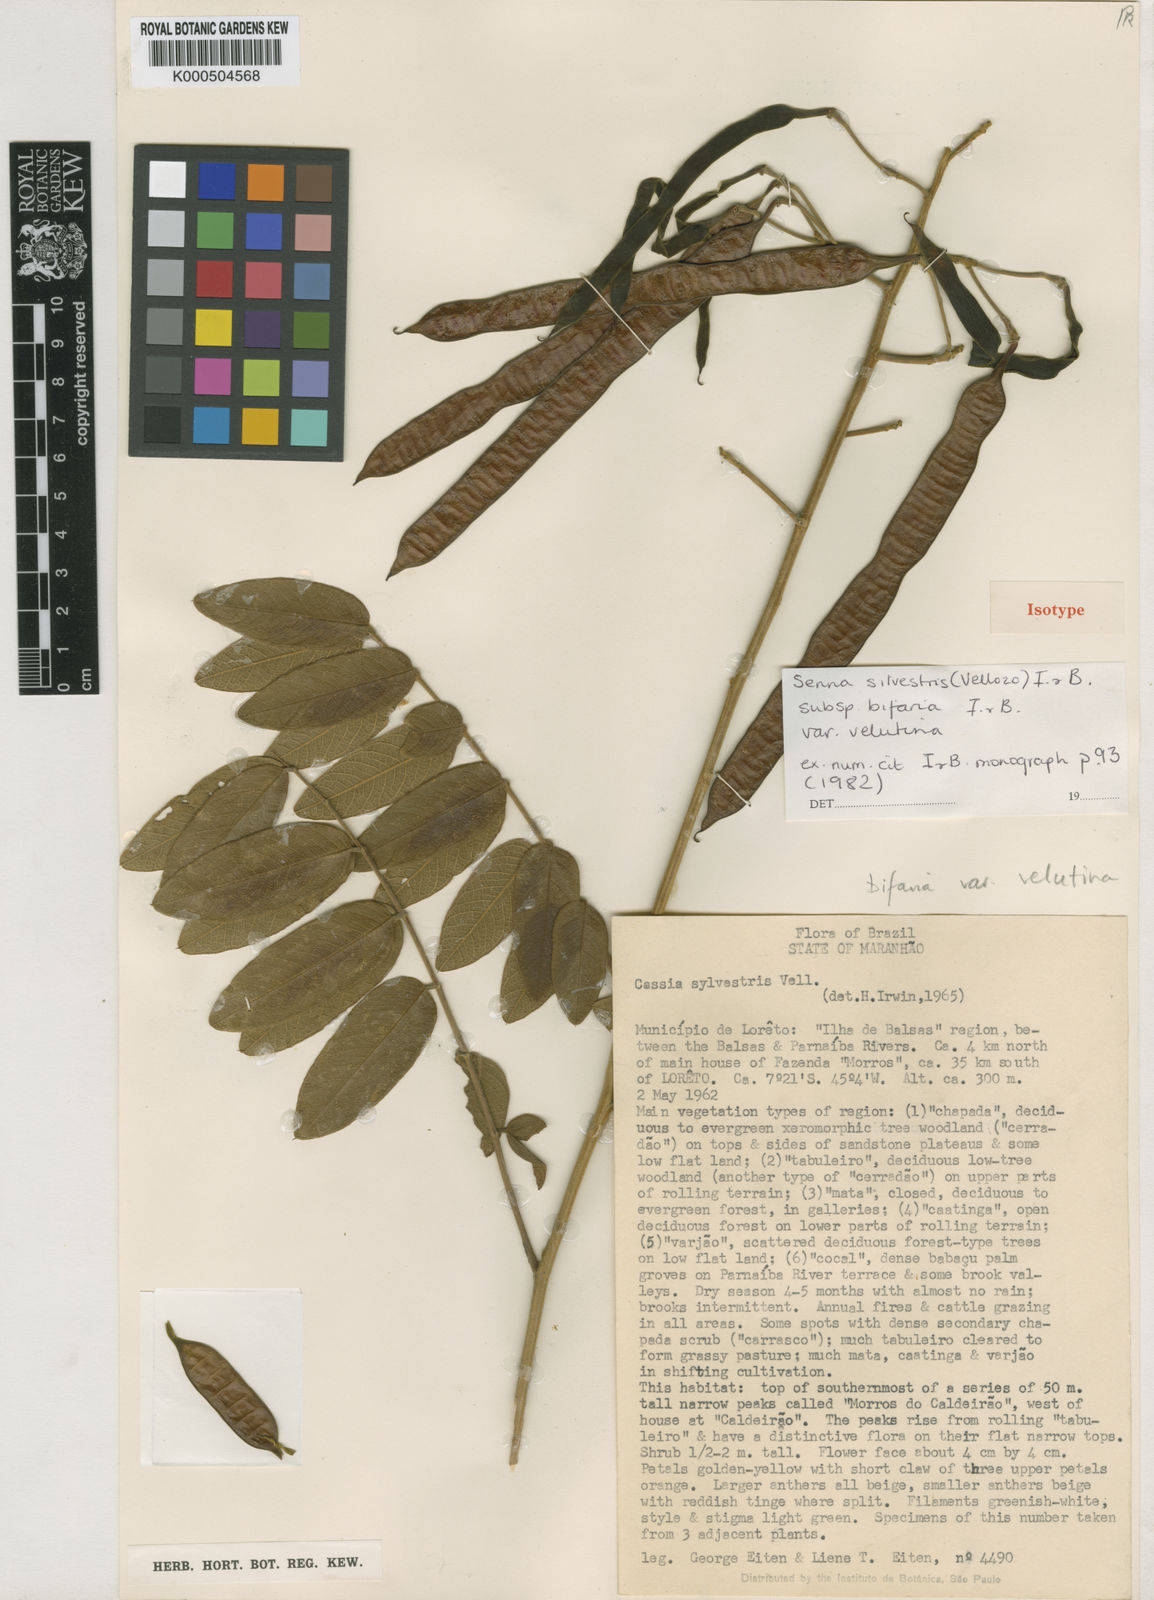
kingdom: Plantae
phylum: Tracheophyta
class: Magnoliopsida
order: Fabales
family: Fabaceae
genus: Senna
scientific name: Senna silvestris
